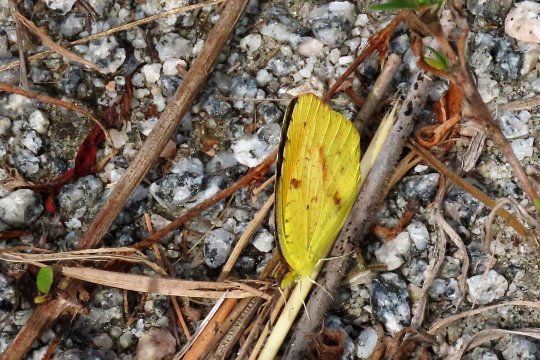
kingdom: Animalia
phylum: Arthropoda
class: Insecta
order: Lepidoptera
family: Pieridae
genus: Abaeis
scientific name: Abaeis nicippe
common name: Sleepy Orange
